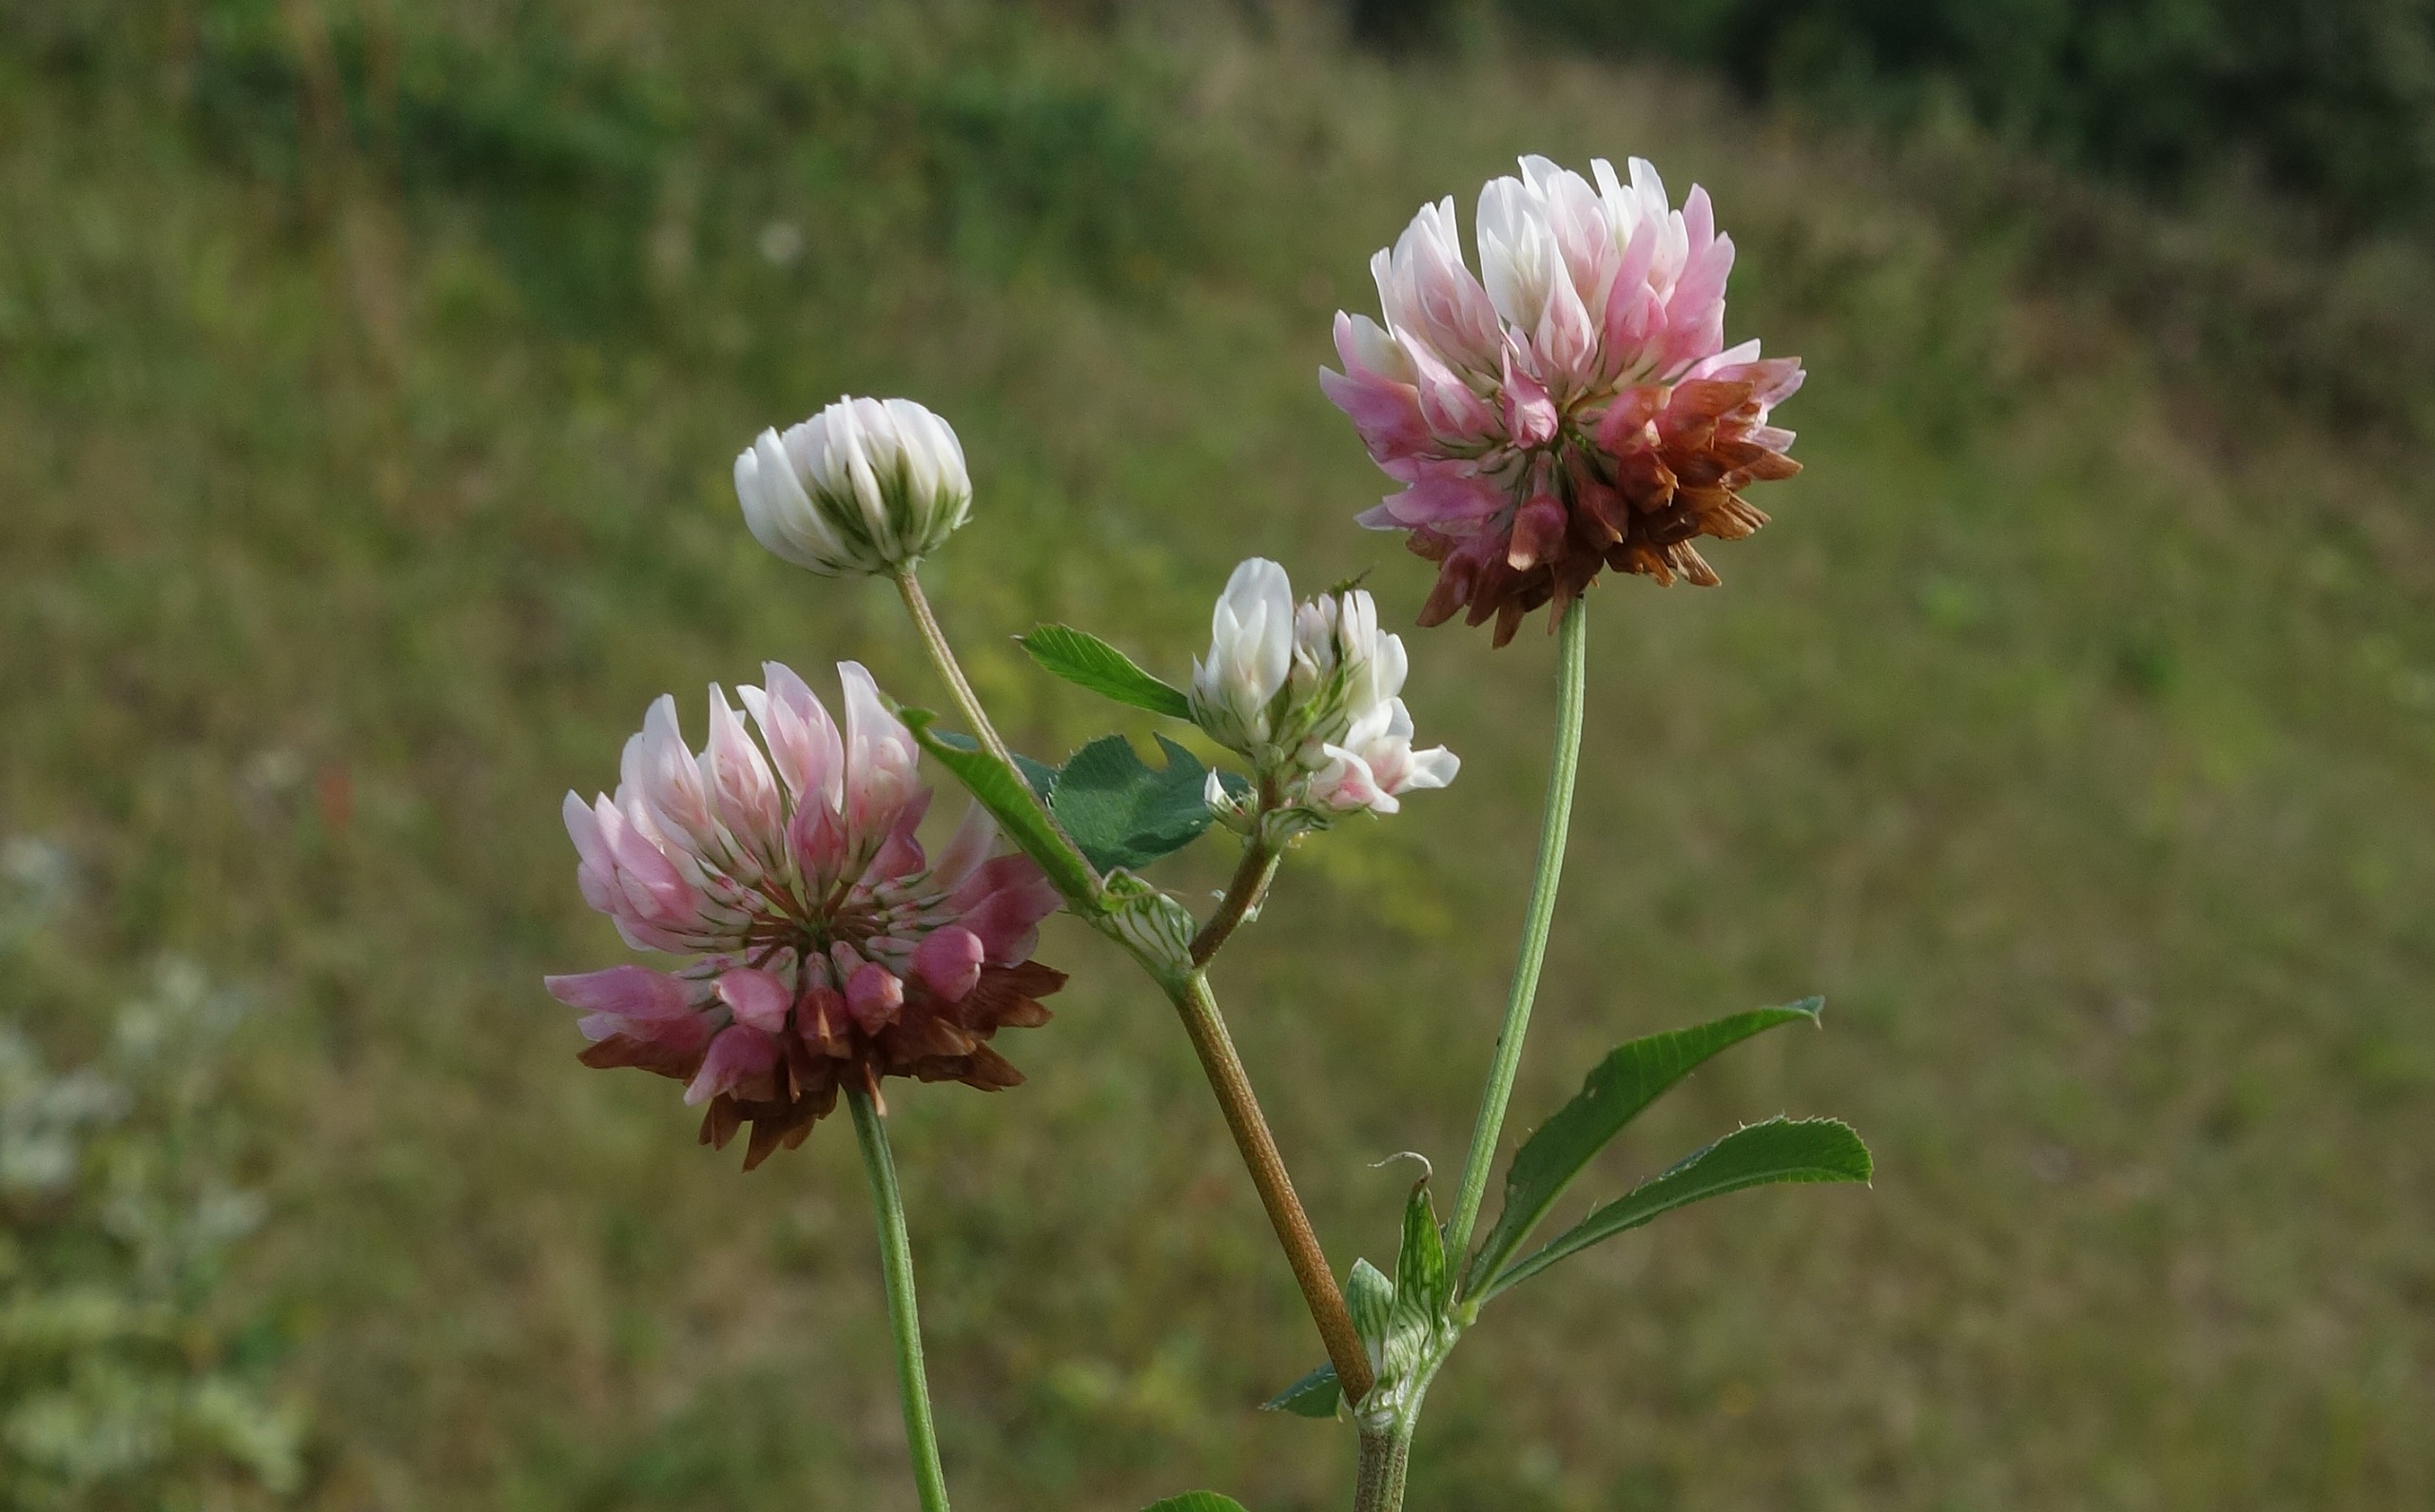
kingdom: Plantae
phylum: Tracheophyta
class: Magnoliopsida
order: Fabales
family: Fabaceae
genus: Trifolium
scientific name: Trifolium hybridum
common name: Alsike-kløver
